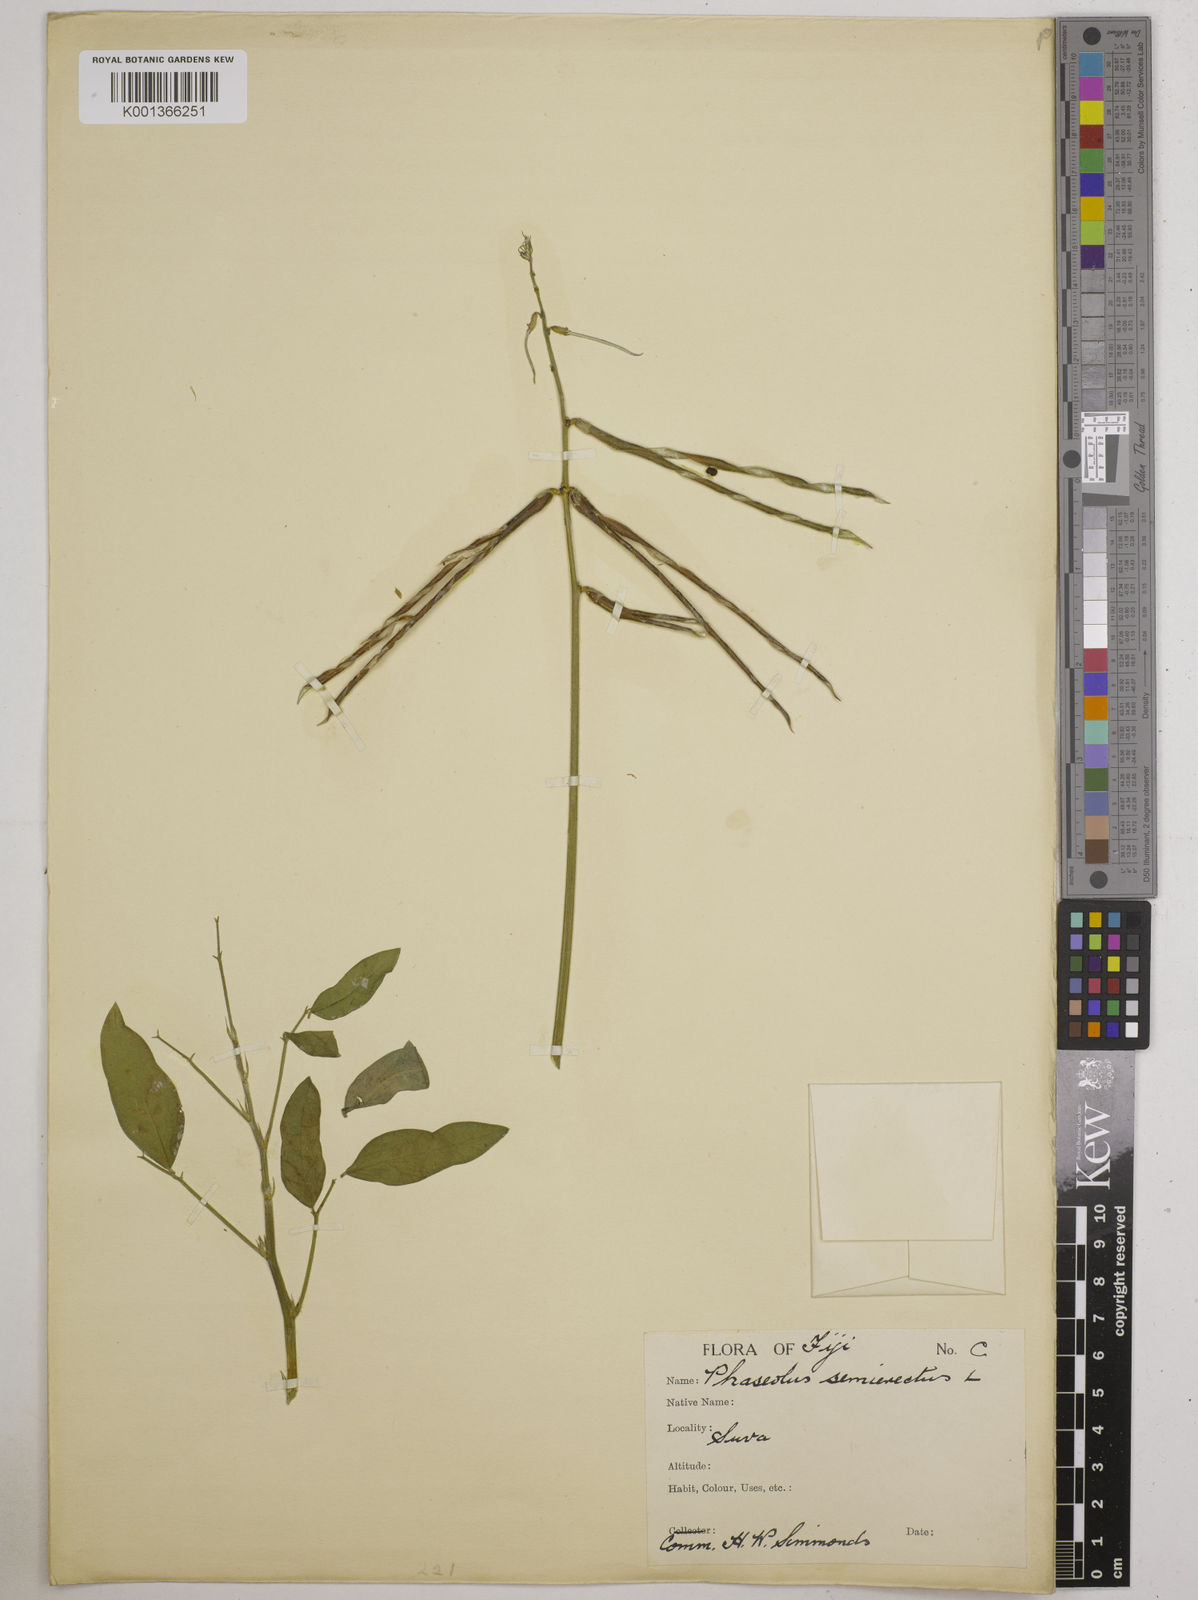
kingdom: Plantae
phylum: Tracheophyta
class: Magnoliopsida
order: Fabales
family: Fabaceae
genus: Macroptilium
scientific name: Macroptilium lathyroides
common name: Wild bushbean
